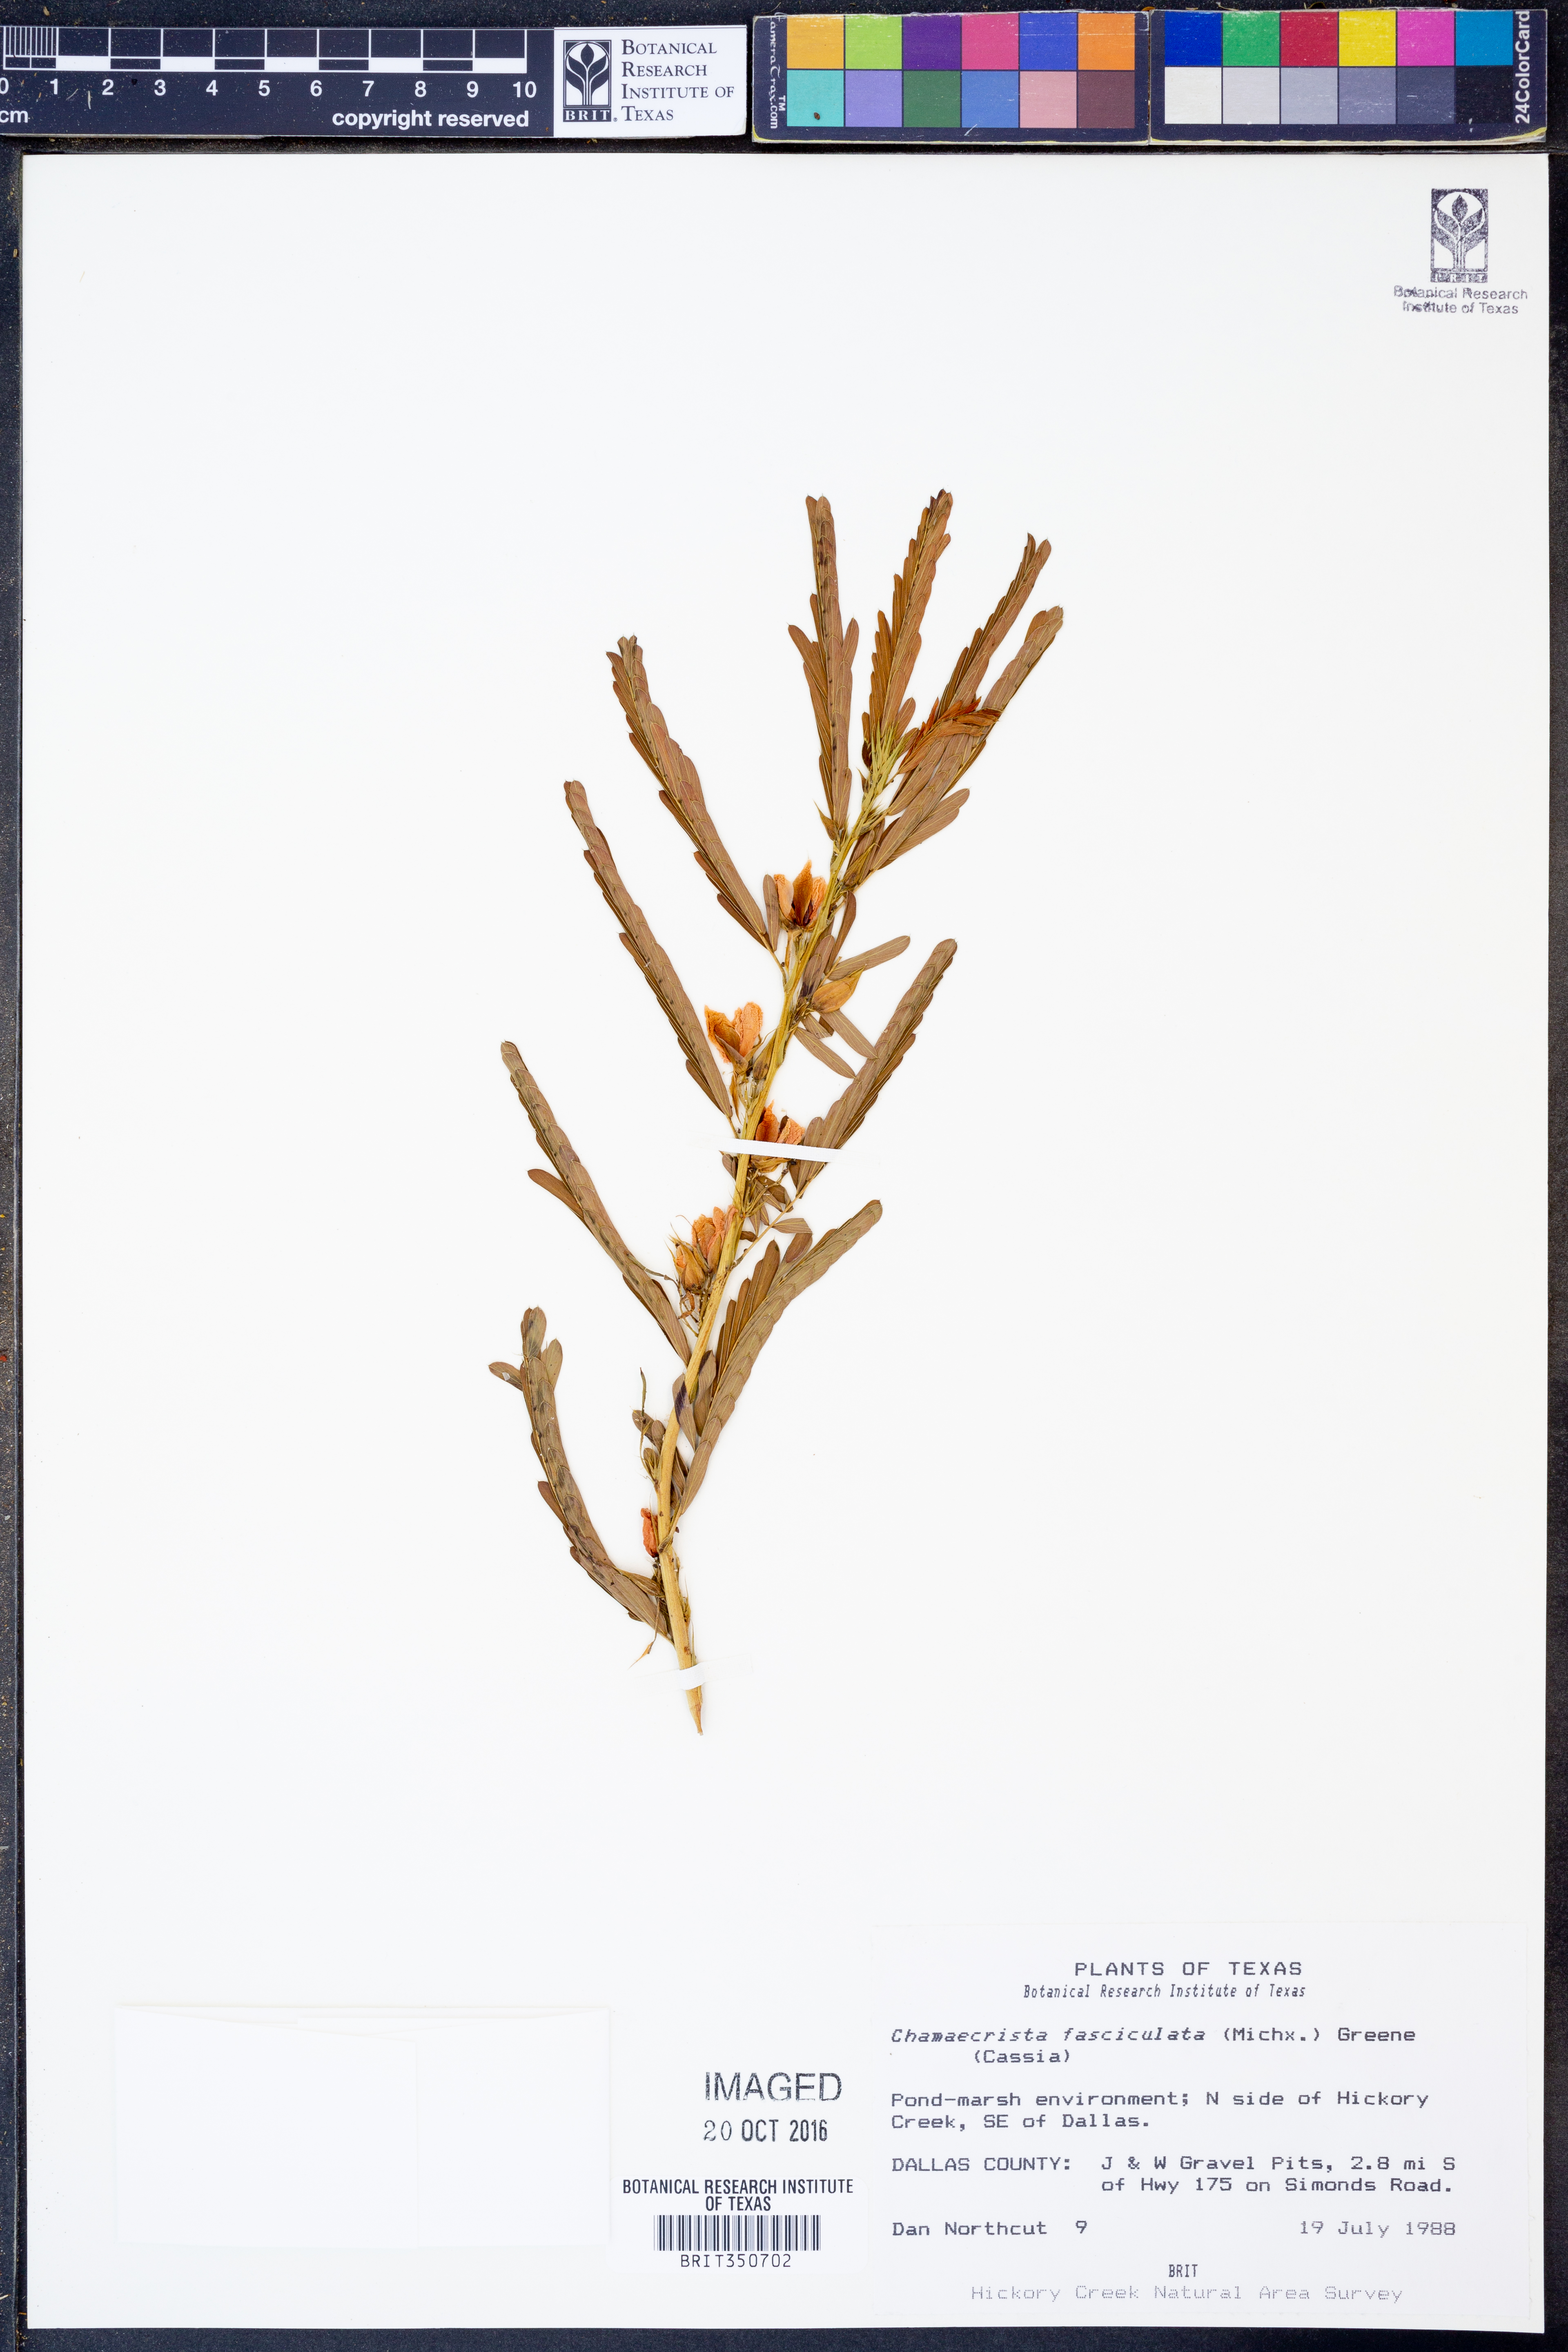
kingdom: Plantae
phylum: Tracheophyta
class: Magnoliopsida
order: Fabales
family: Fabaceae
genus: Chamaecrista
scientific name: Chamaecrista fasciculata
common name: Golden cassia
